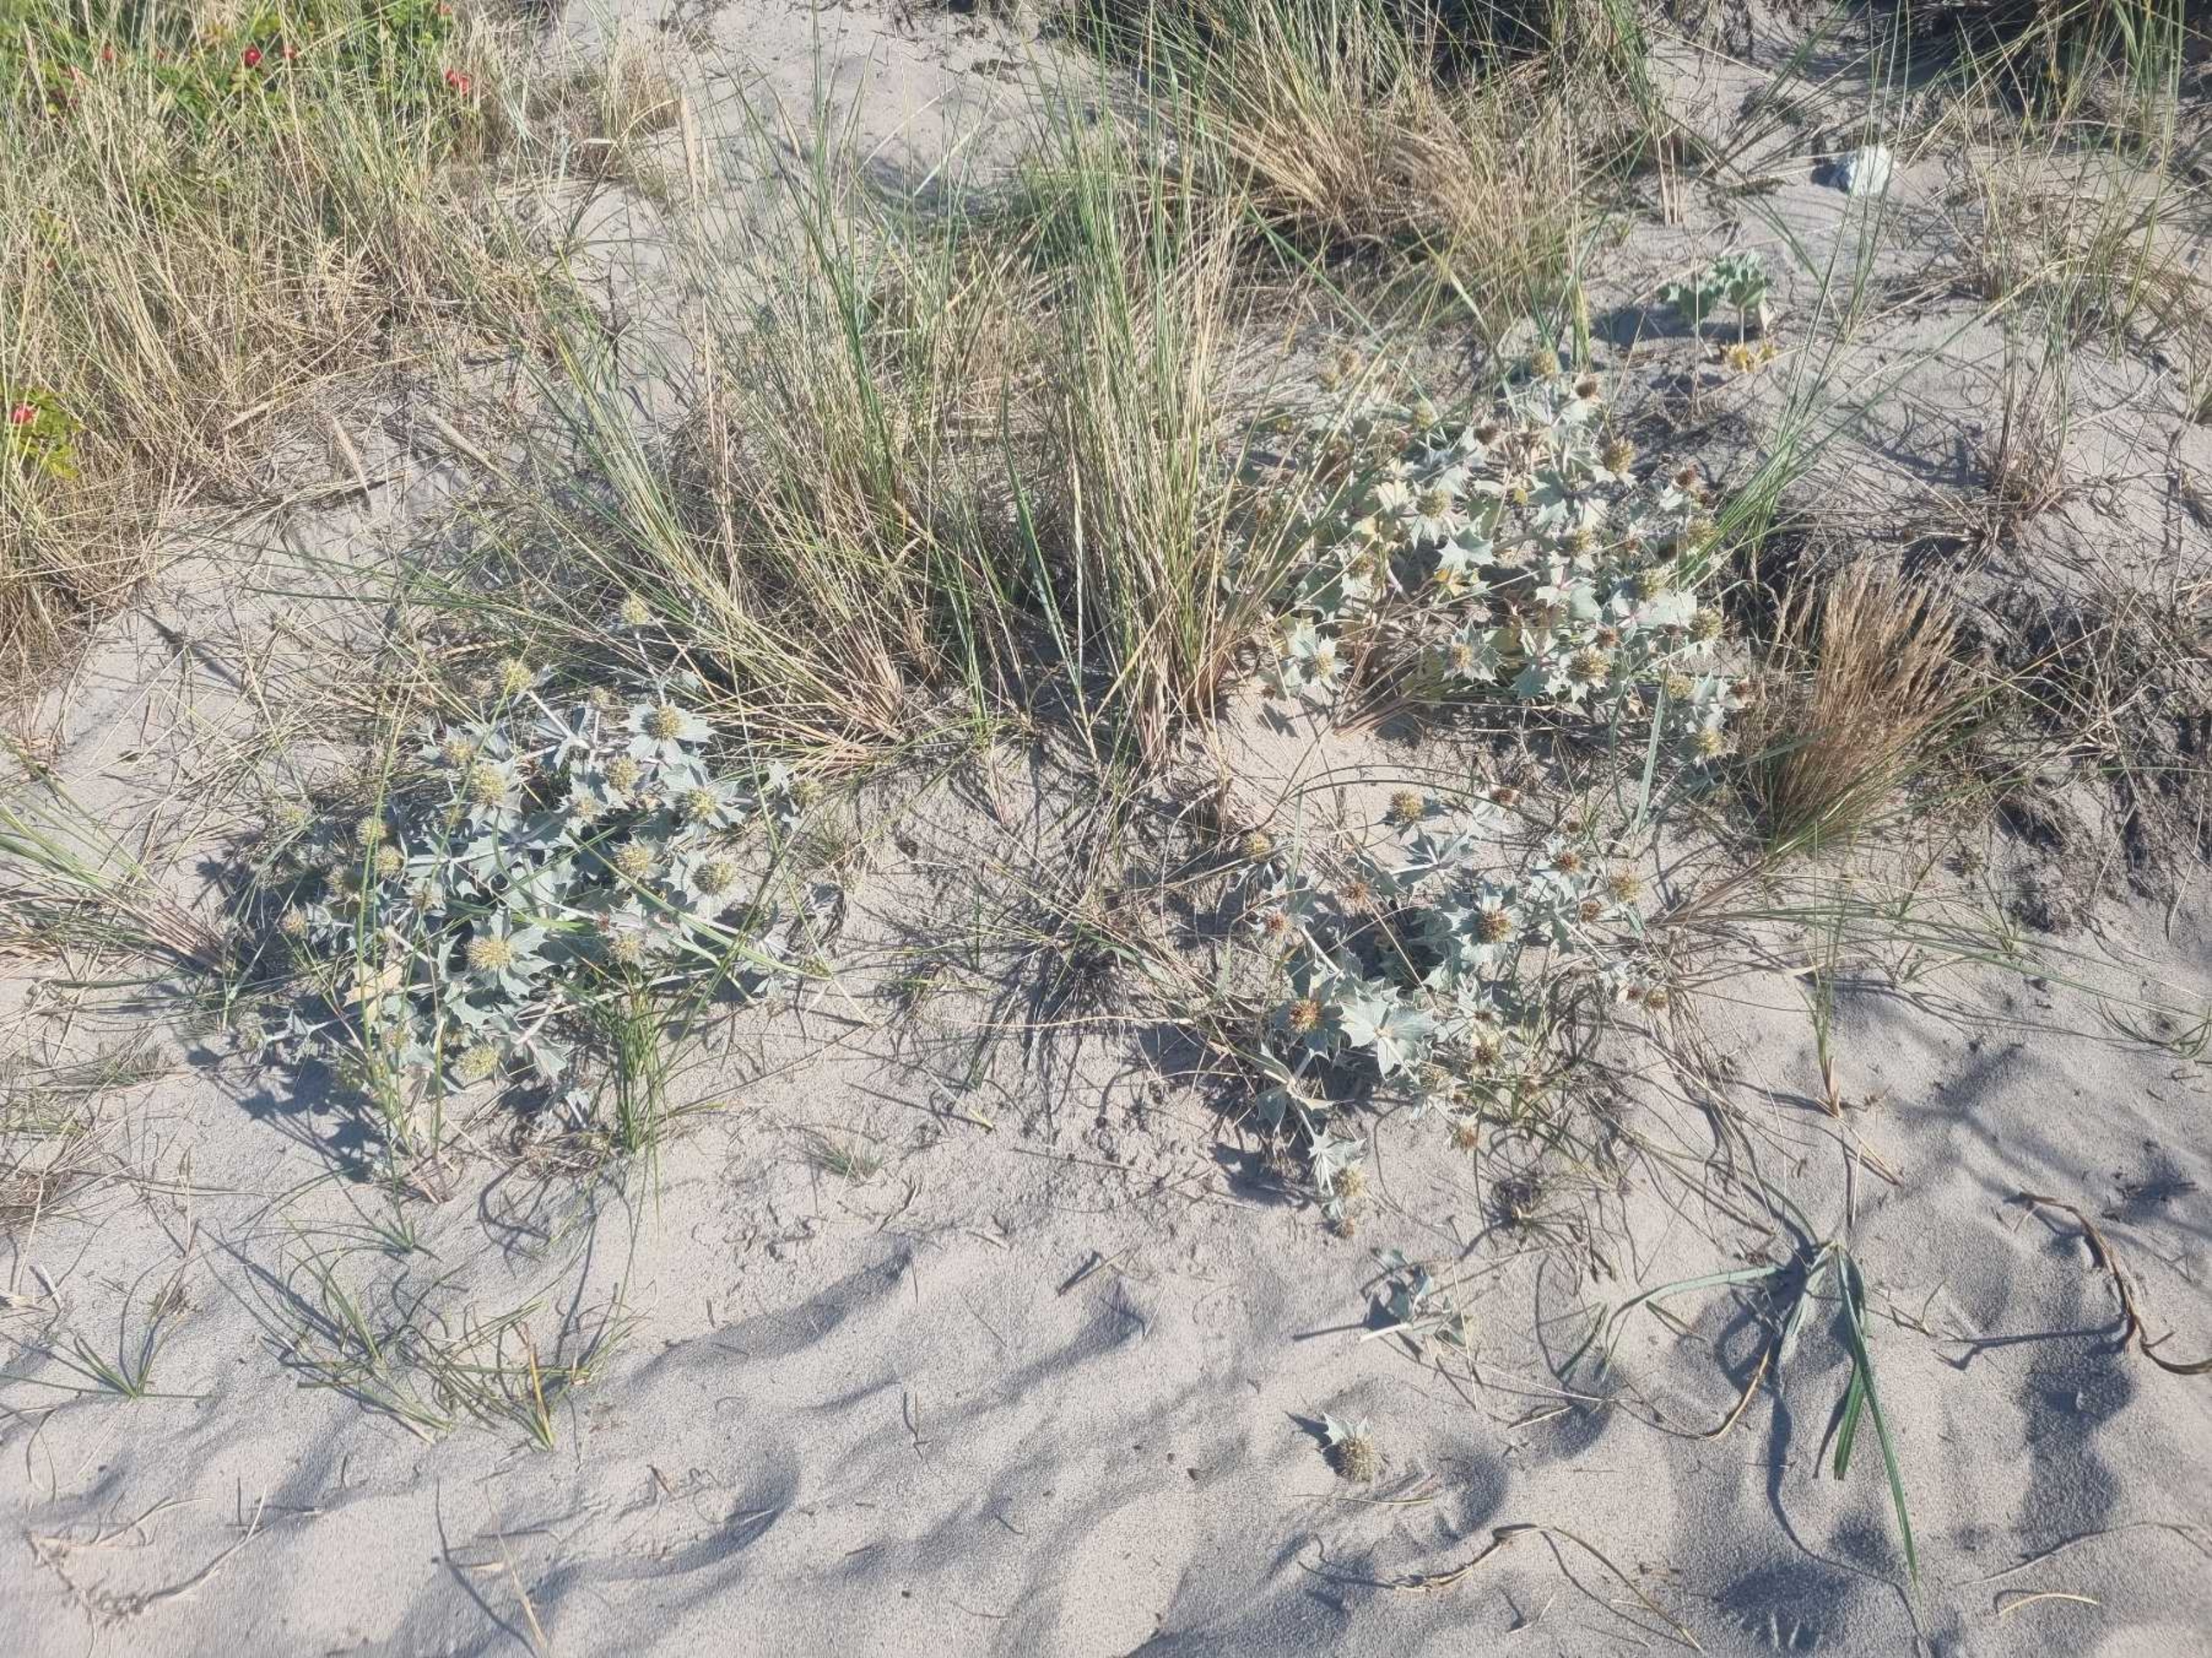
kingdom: Plantae
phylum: Tracheophyta
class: Magnoliopsida
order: Apiales
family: Apiaceae
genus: Eryngium
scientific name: Eryngium maritimum
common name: Strand-mandstro
